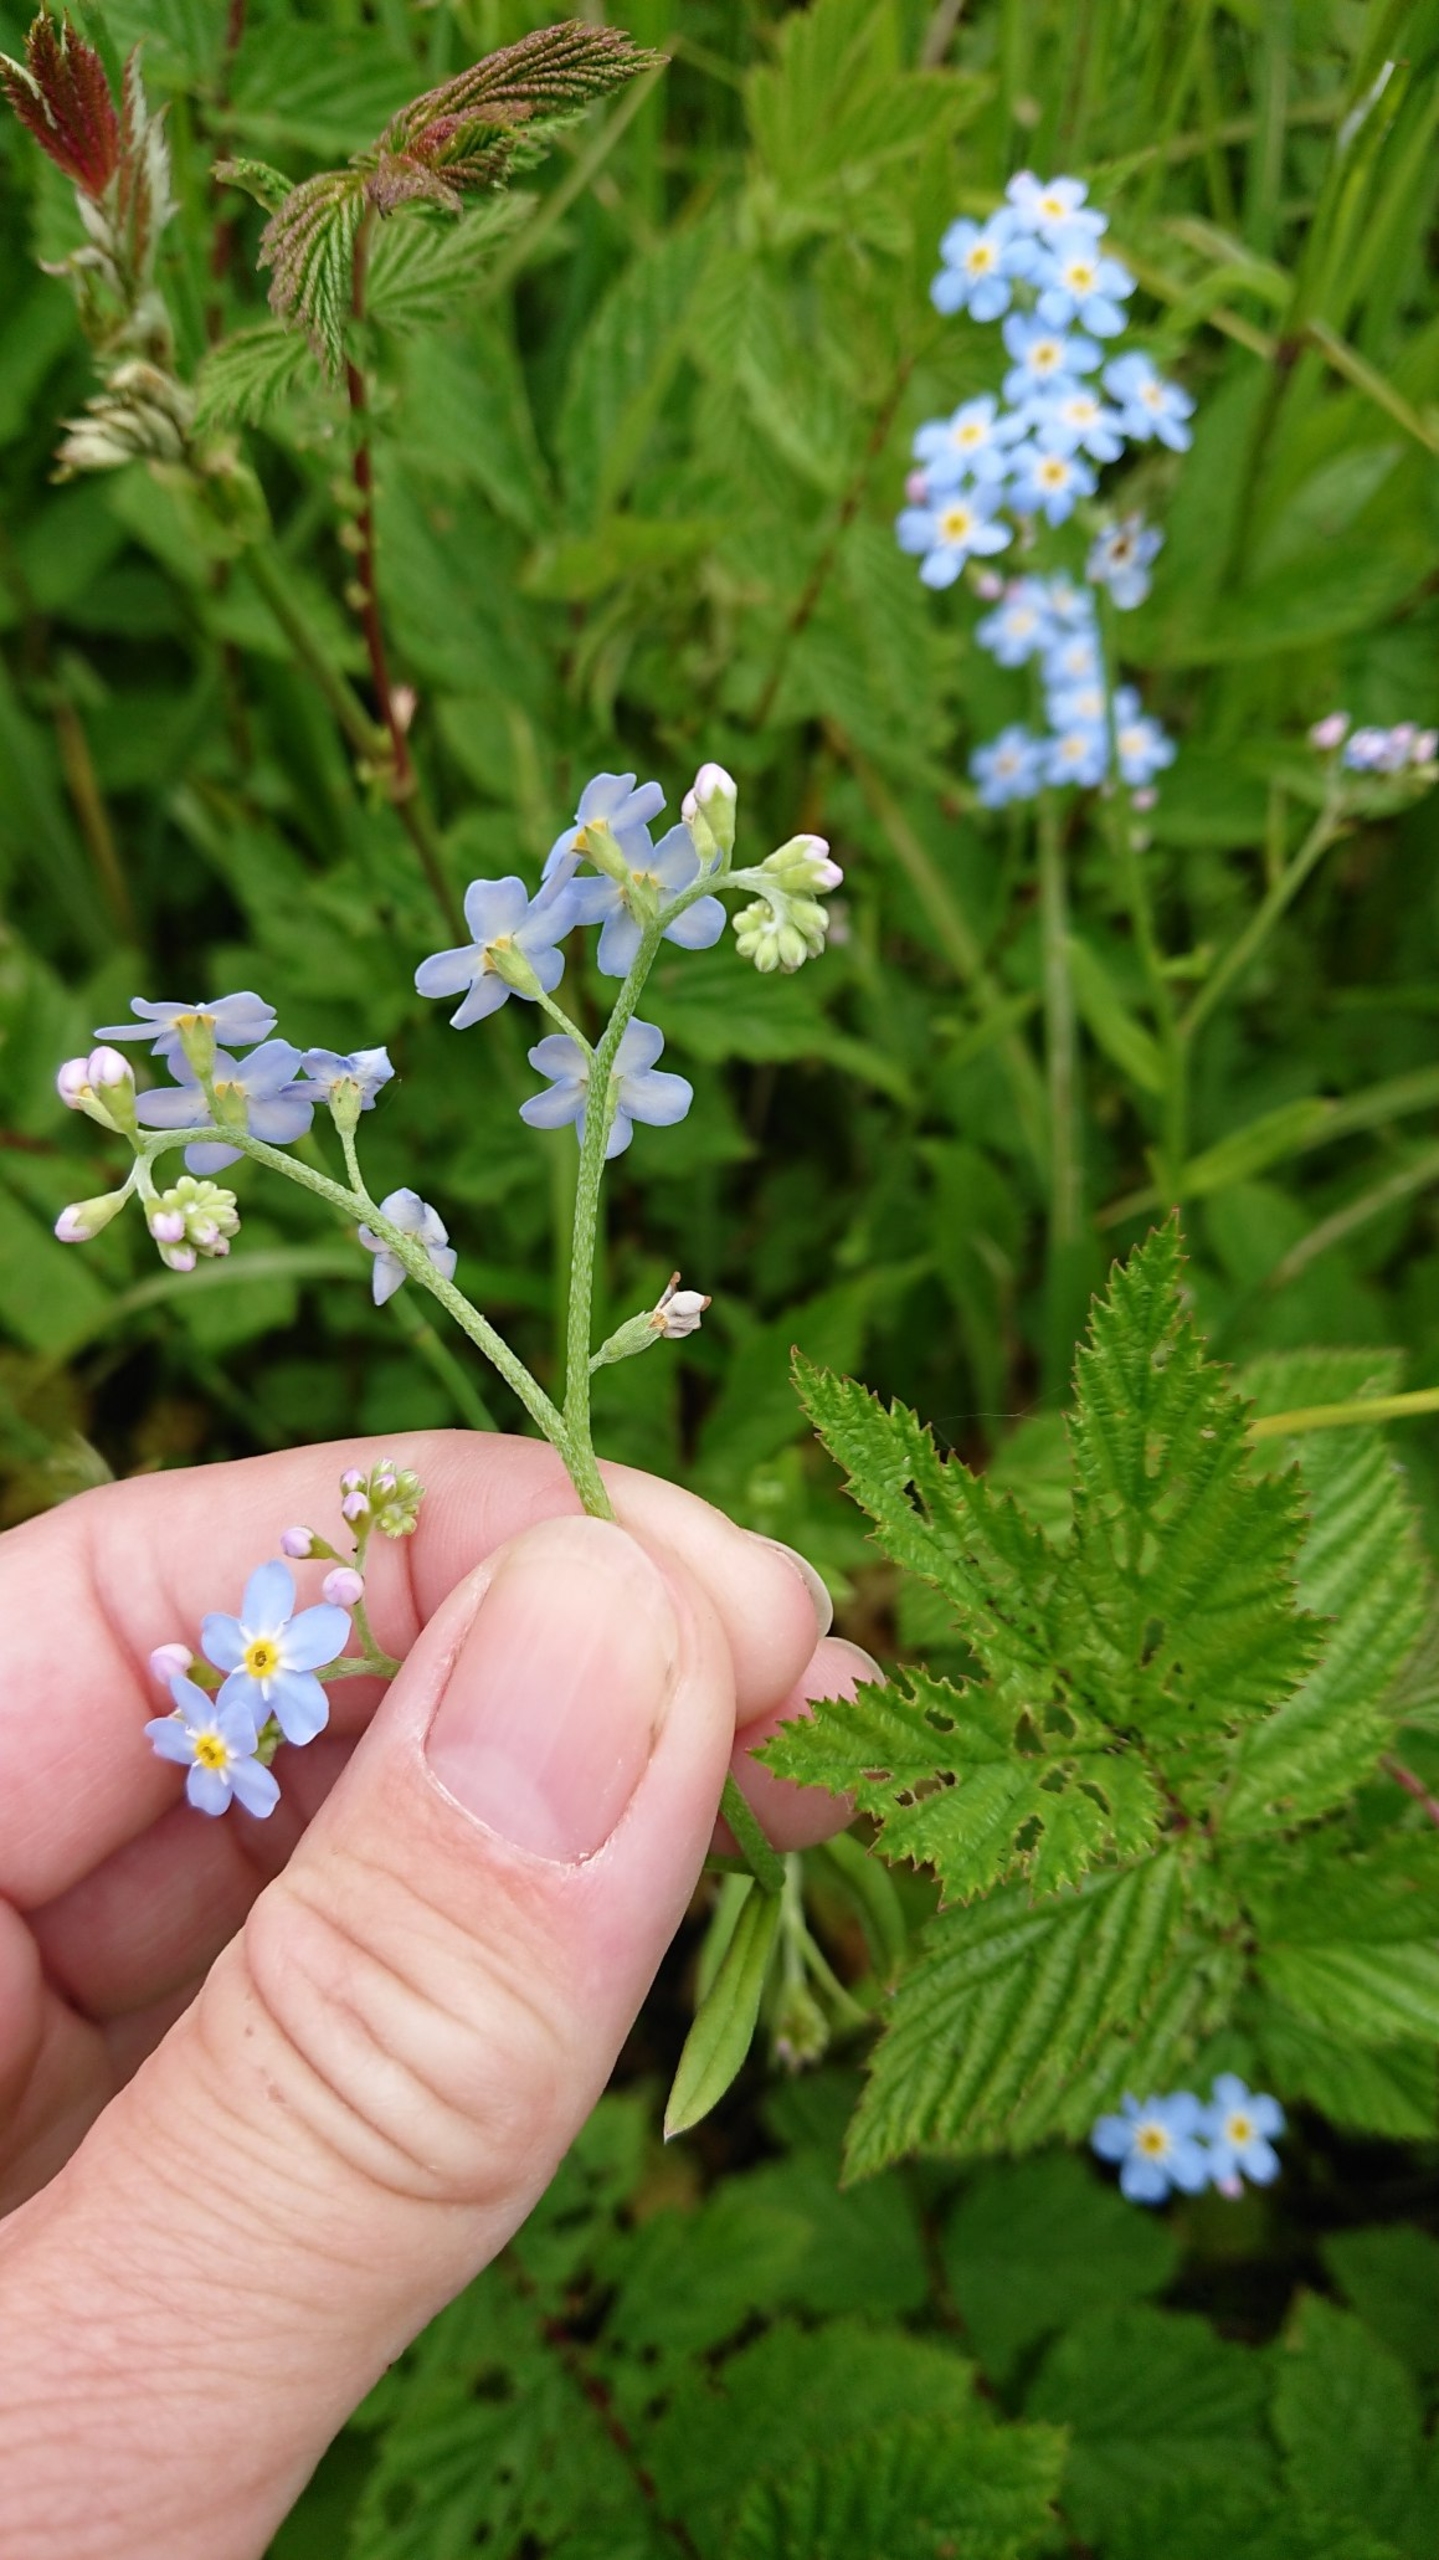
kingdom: Plantae
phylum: Tracheophyta
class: Magnoliopsida
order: Boraginales
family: Boraginaceae
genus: Myosotis
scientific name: Myosotis scorpioides
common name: Eng-forglemmigej
